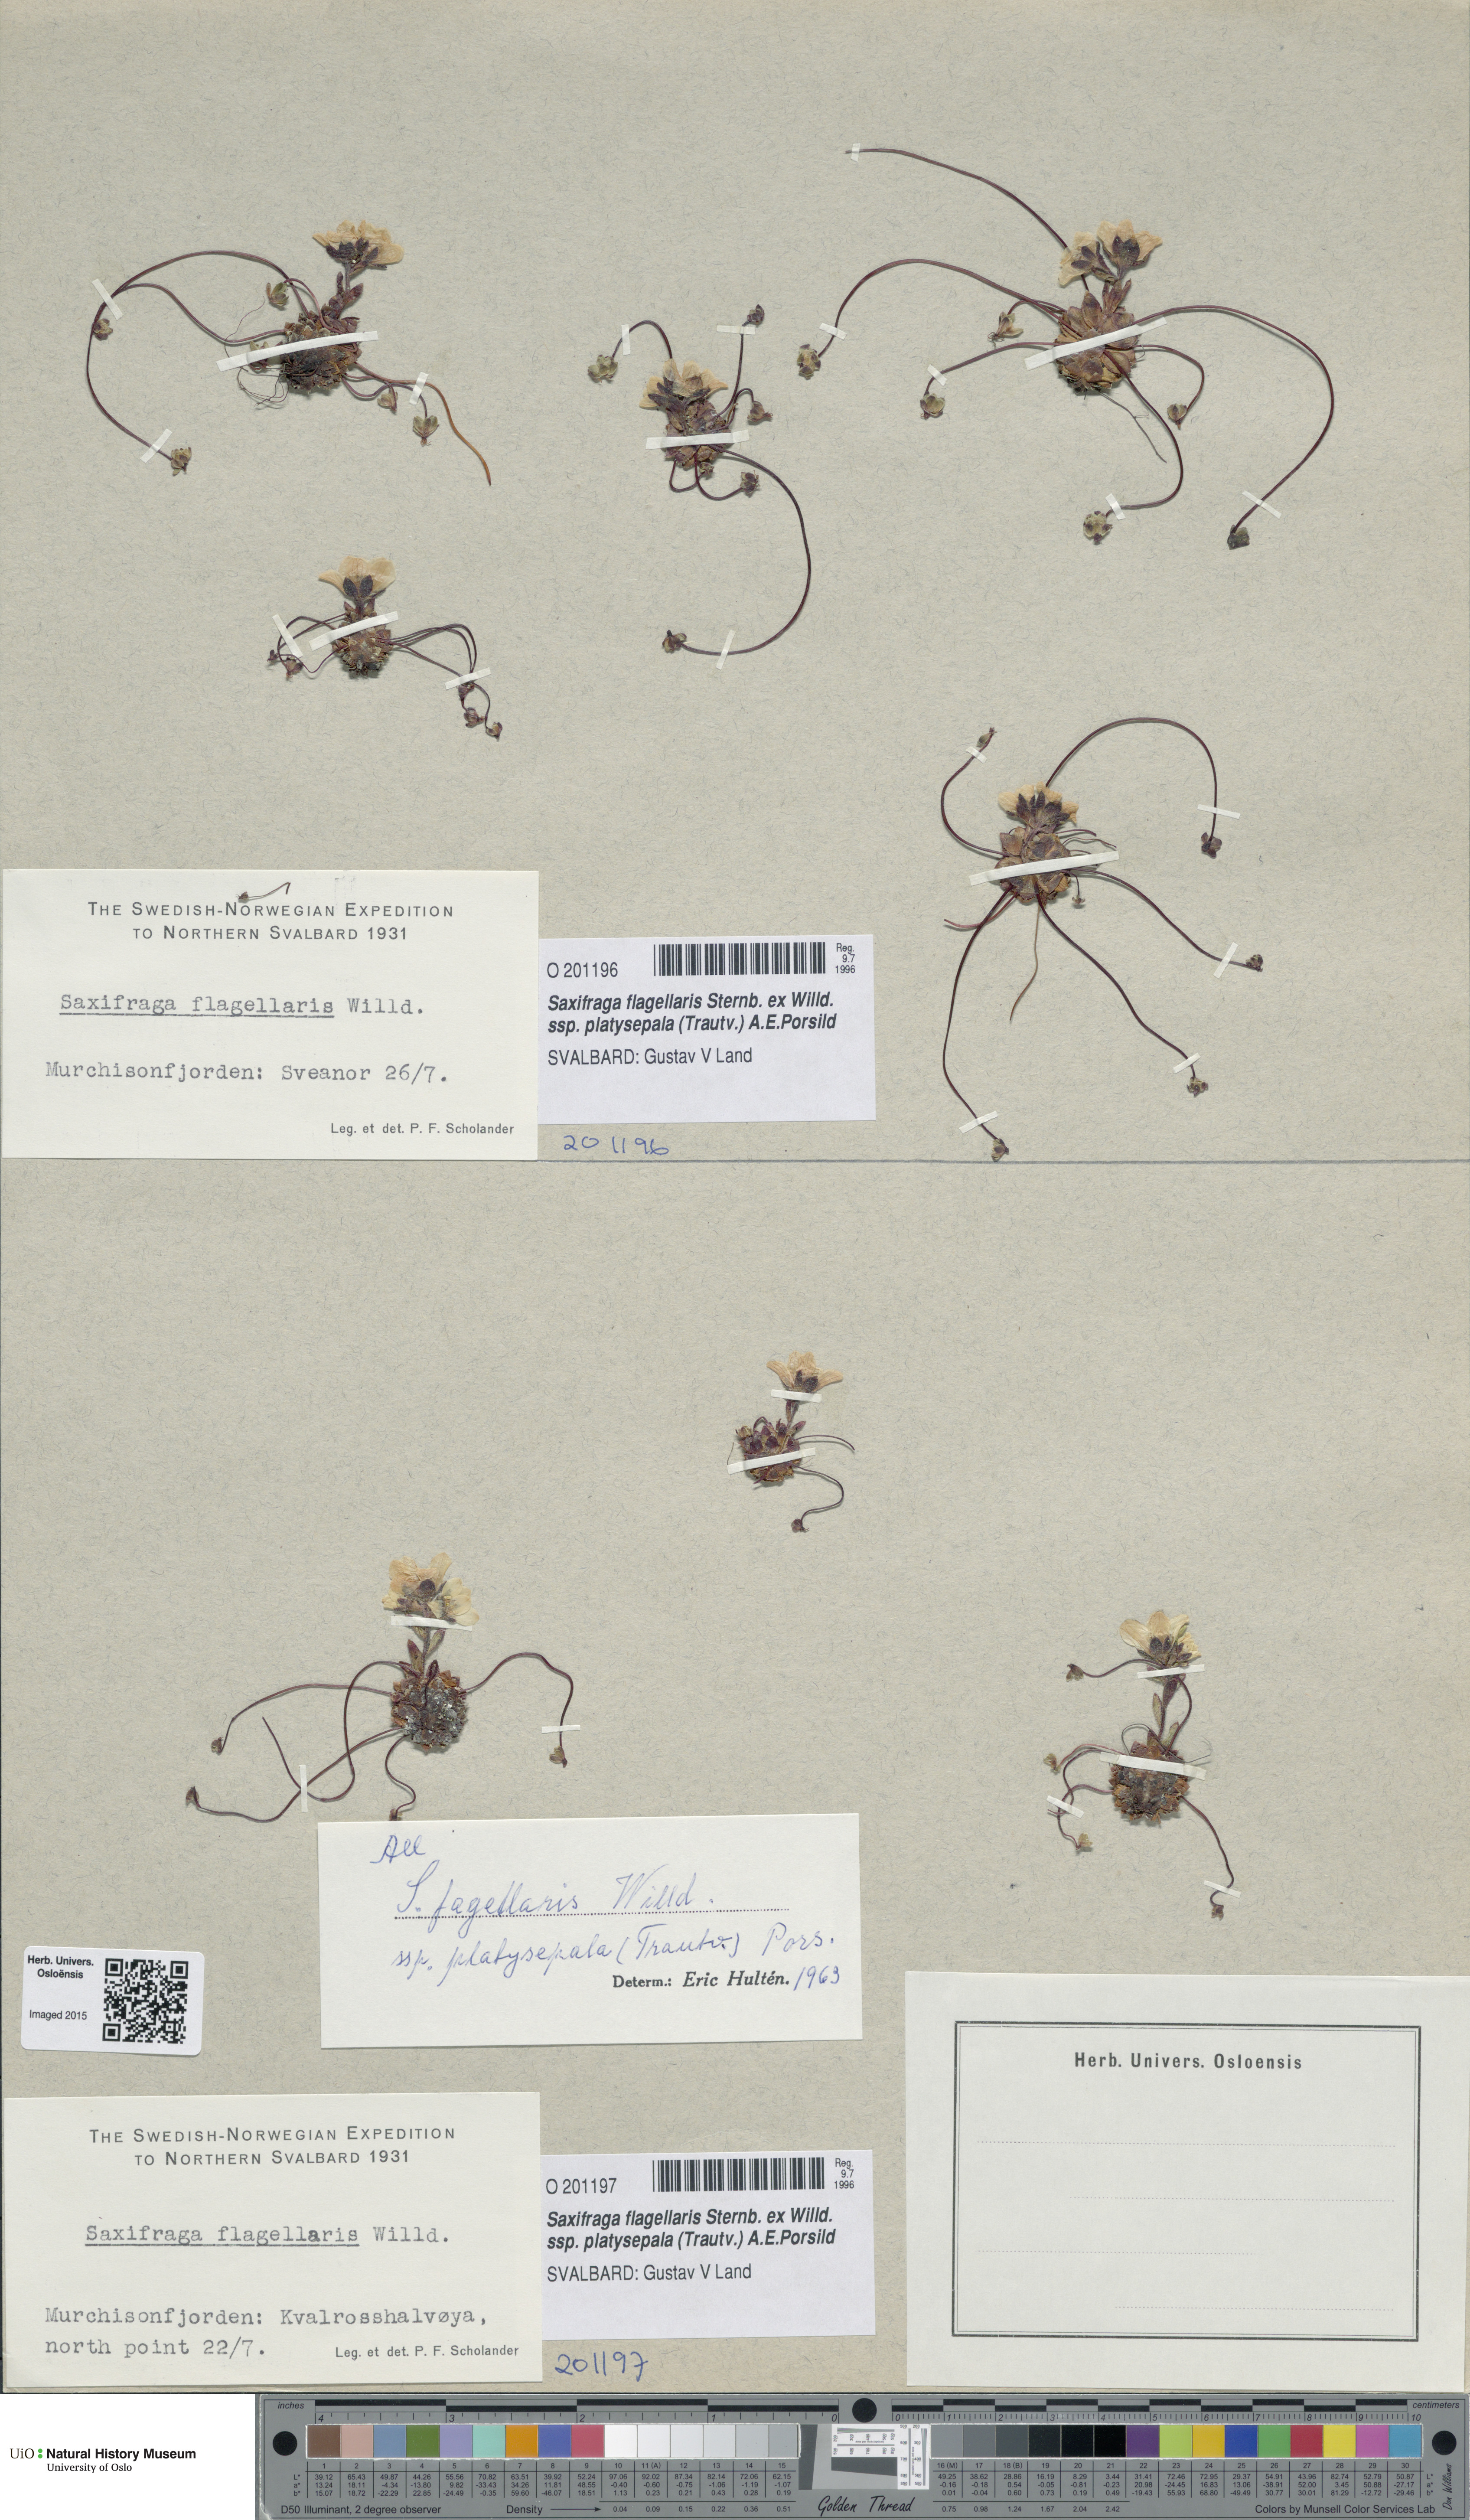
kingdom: Plantae
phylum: Tracheophyta
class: Magnoliopsida
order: Saxifragales
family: Saxifragaceae
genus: Saxifraga
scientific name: Saxifraga platysepala
